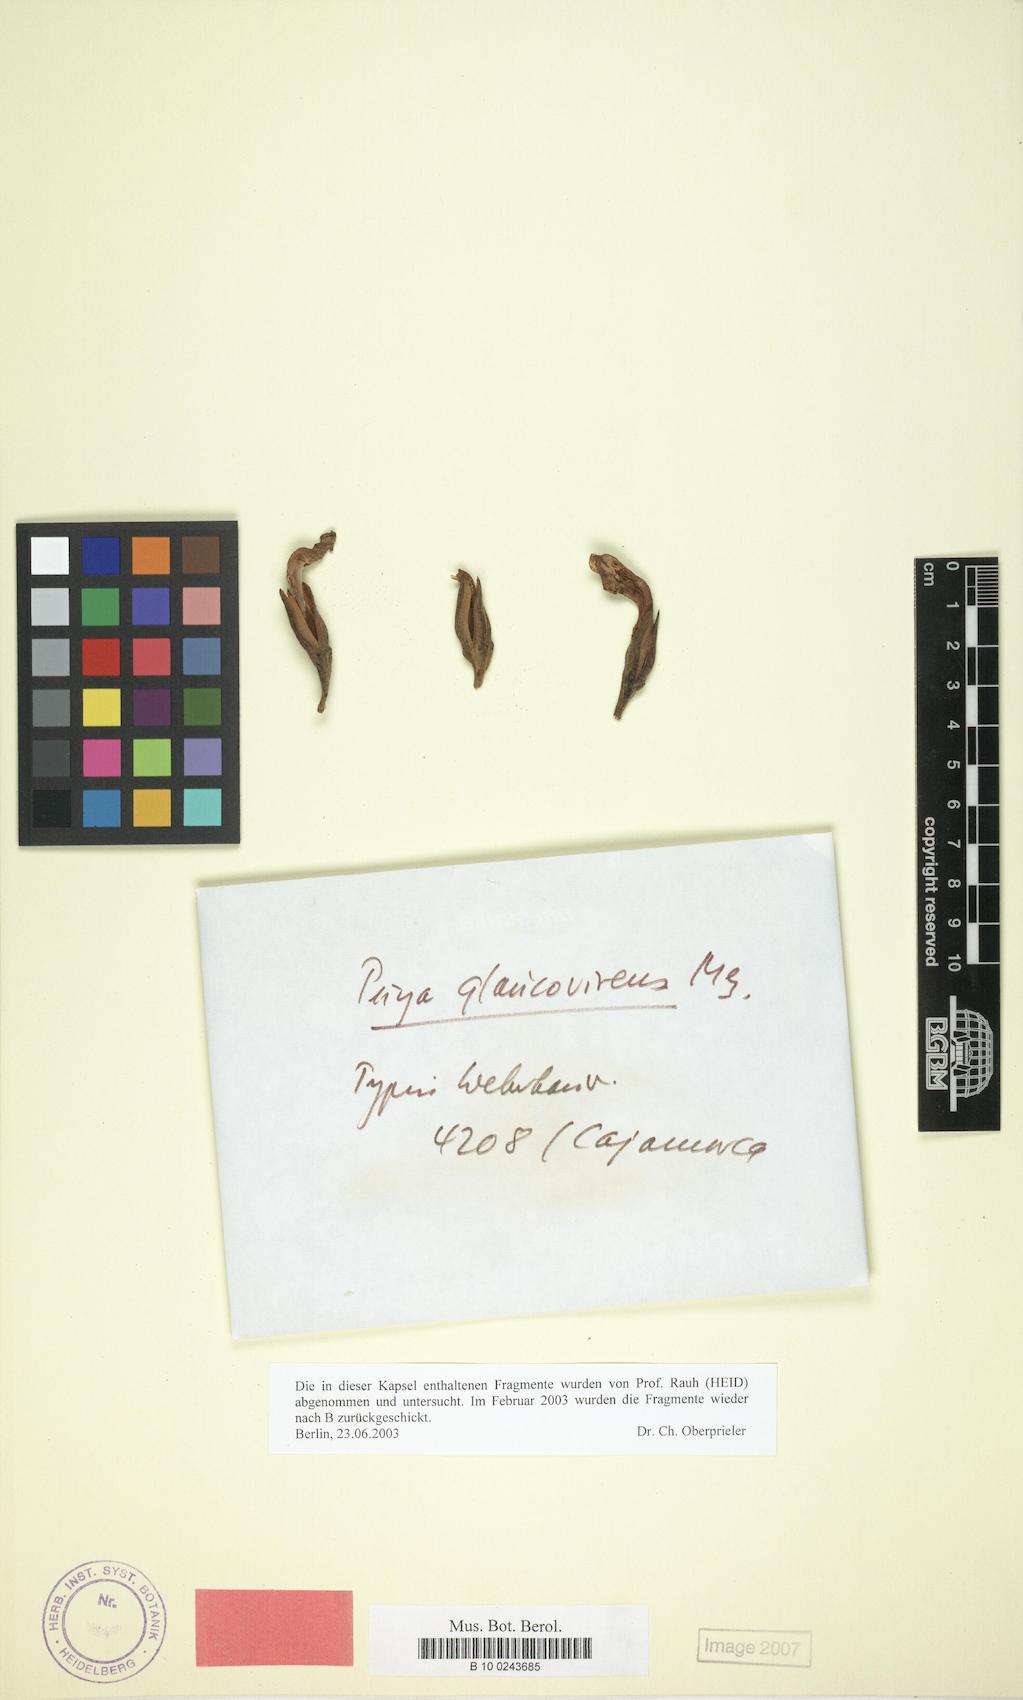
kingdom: Plantae
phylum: Tracheophyta
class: Liliopsida
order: Poales
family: Bromeliaceae
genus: Puya
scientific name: Puya glaucovirens
